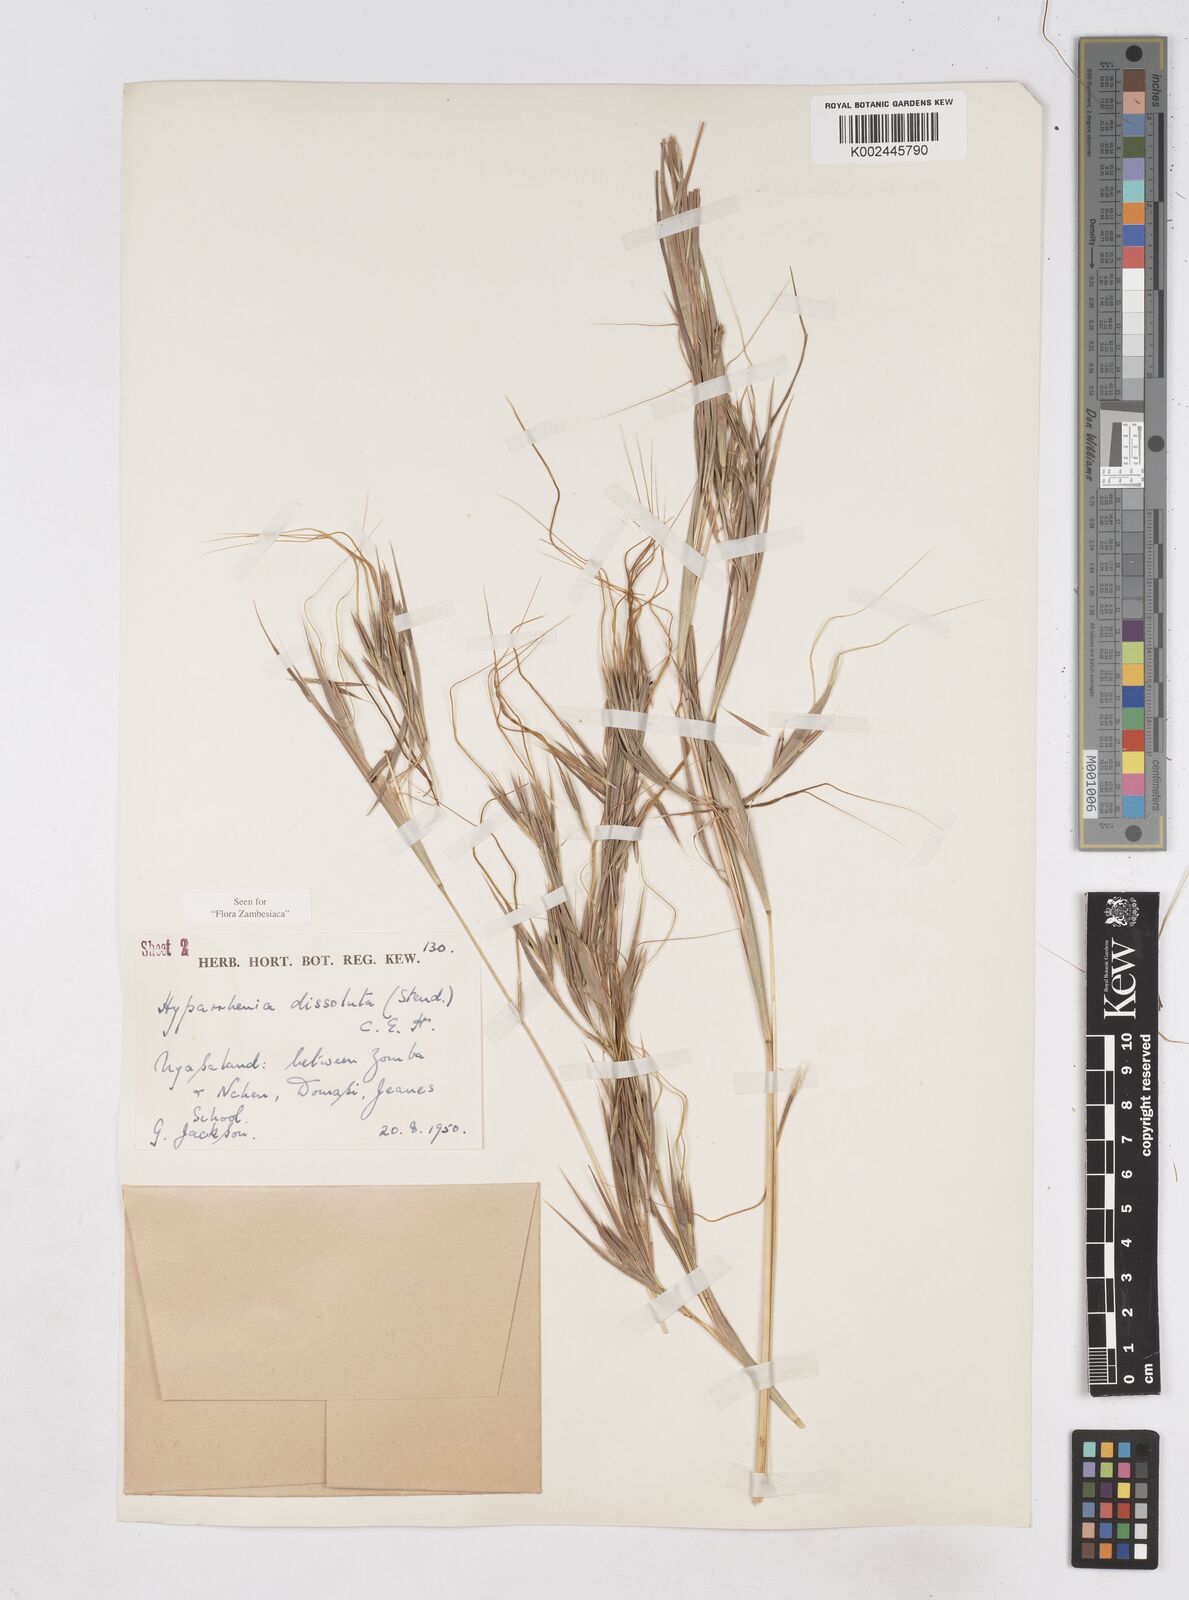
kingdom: Plantae
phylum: Tracheophyta
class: Liliopsida
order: Poales
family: Poaceae
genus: Hyperthelia
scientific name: Hyperthelia dissoluta
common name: Yellow thatching grass
